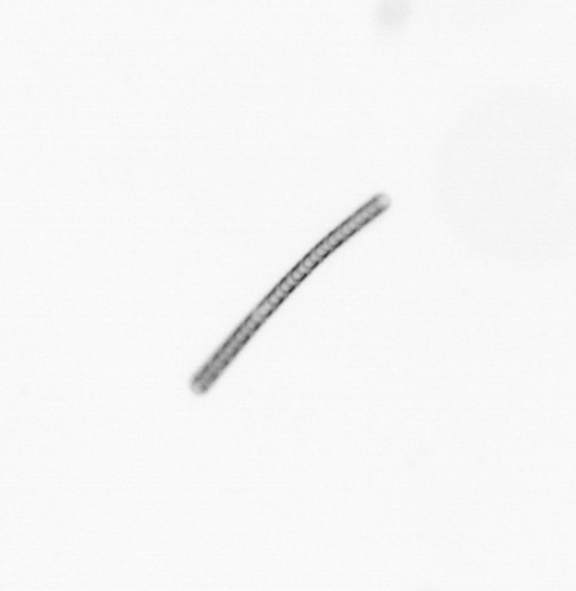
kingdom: Chromista
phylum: Ochrophyta
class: Bacillariophyceae
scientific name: Bacillariophyceae
